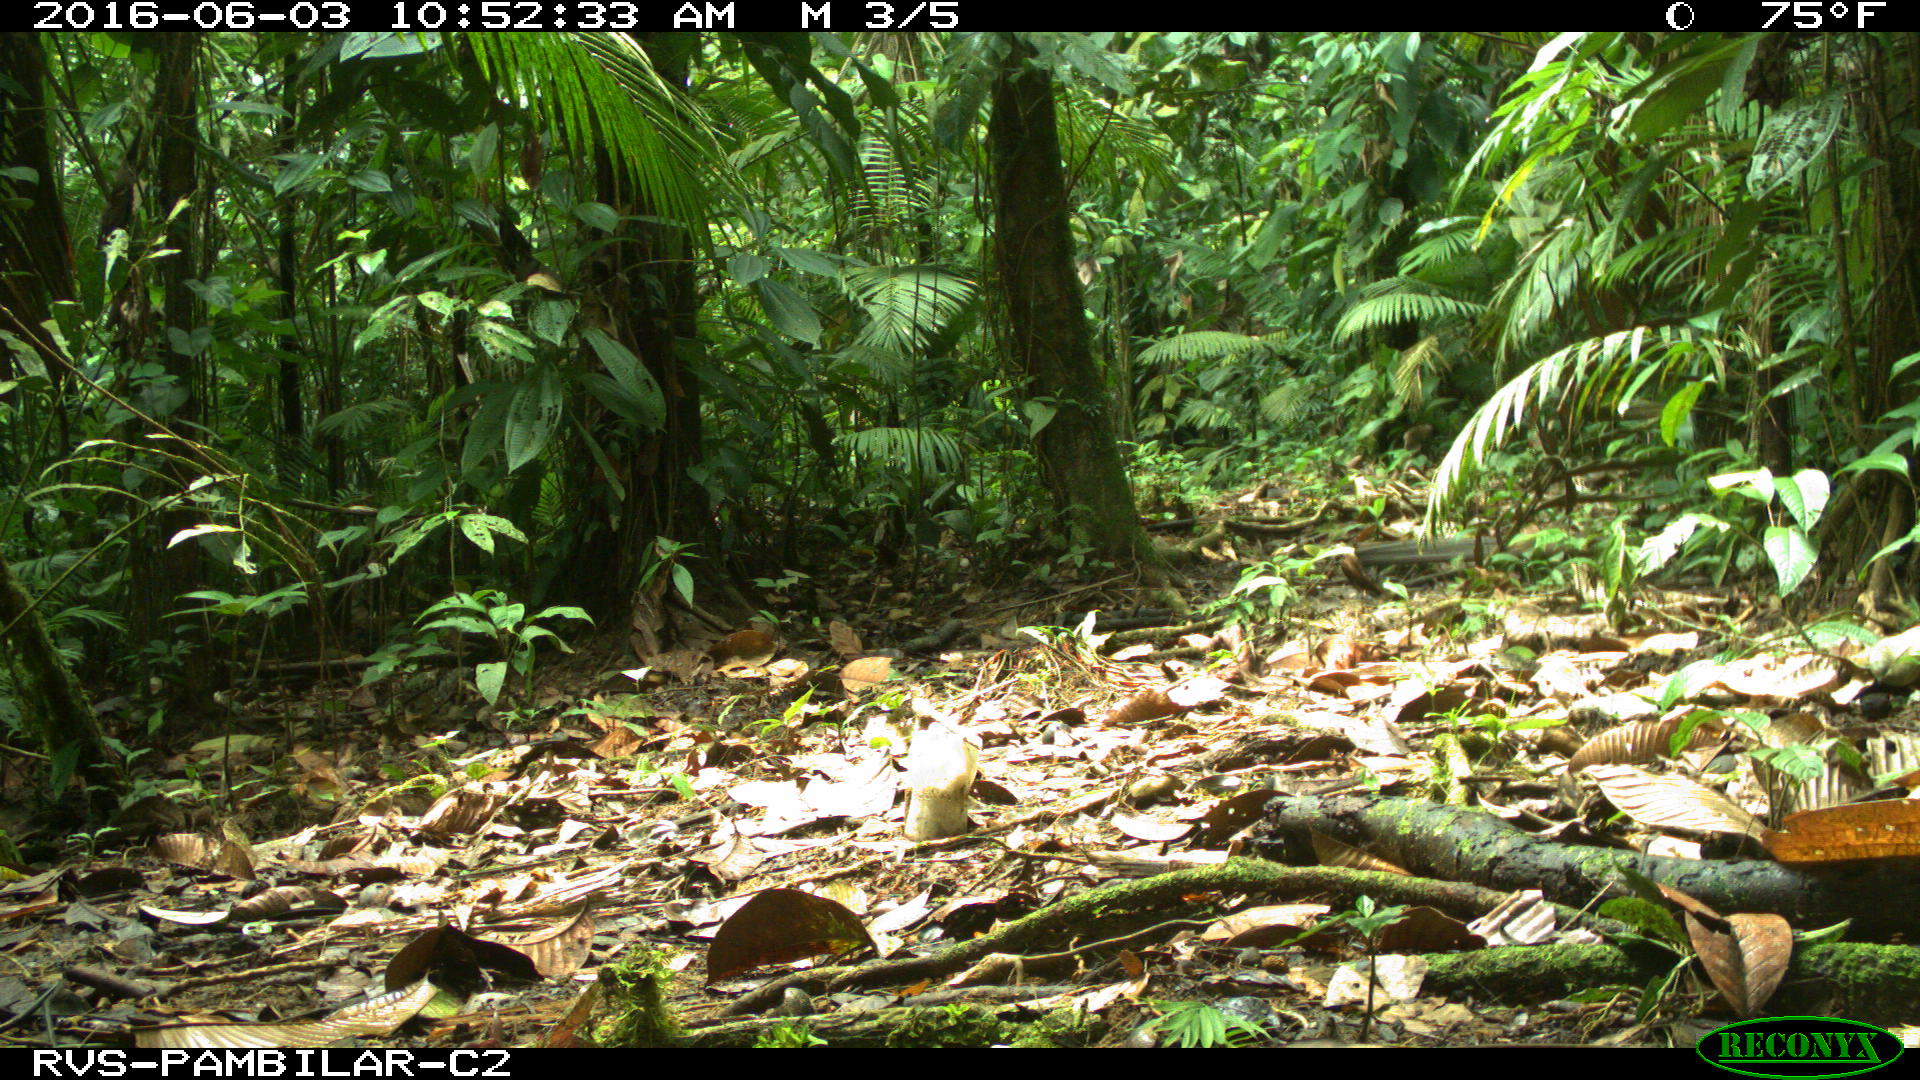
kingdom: Animalia
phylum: Chordata
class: Mammalia
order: Rodentia
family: Dasyproctidae
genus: Dasyprocta
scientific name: Dasyprocta punctata
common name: Central american agouti
